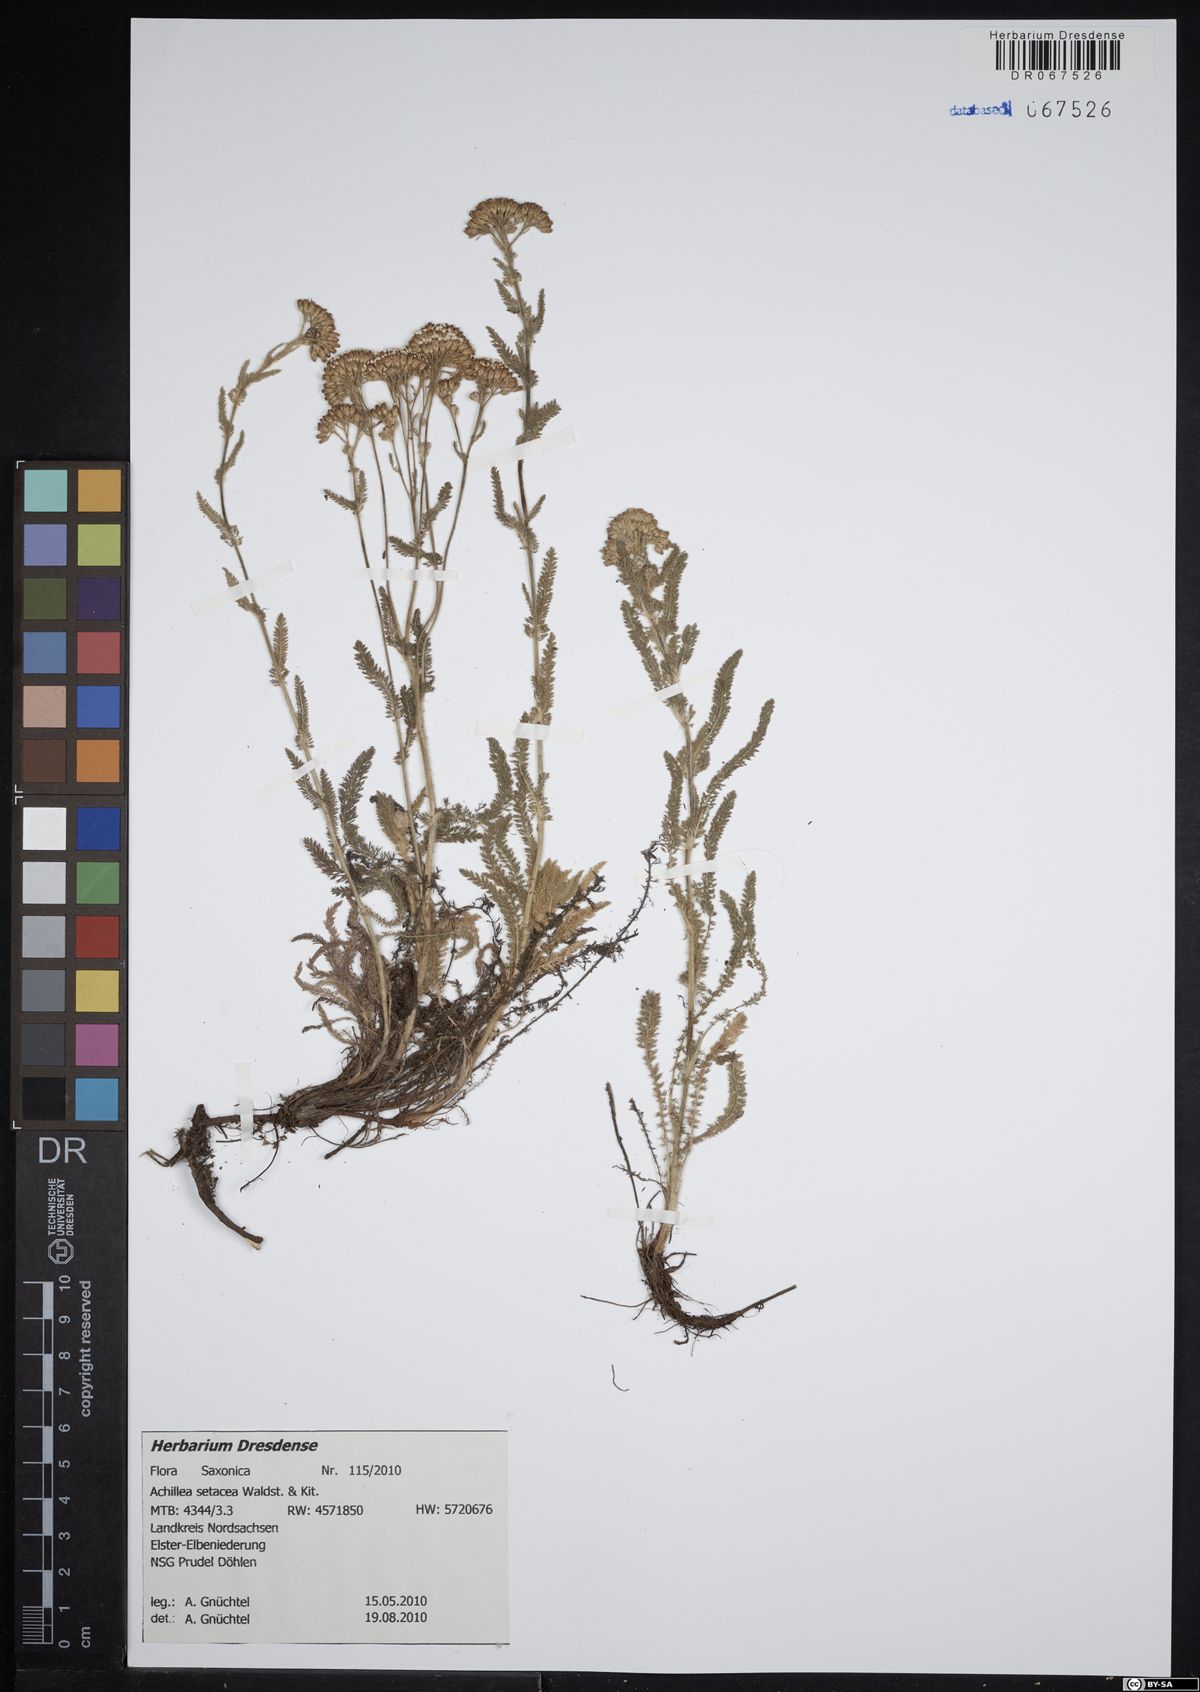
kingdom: Plantae
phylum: Tracheophyta
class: Magnoliopsida
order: Asterales
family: Asteraceae
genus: Achillea
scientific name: Achillea setacea
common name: Bristly yarrow
